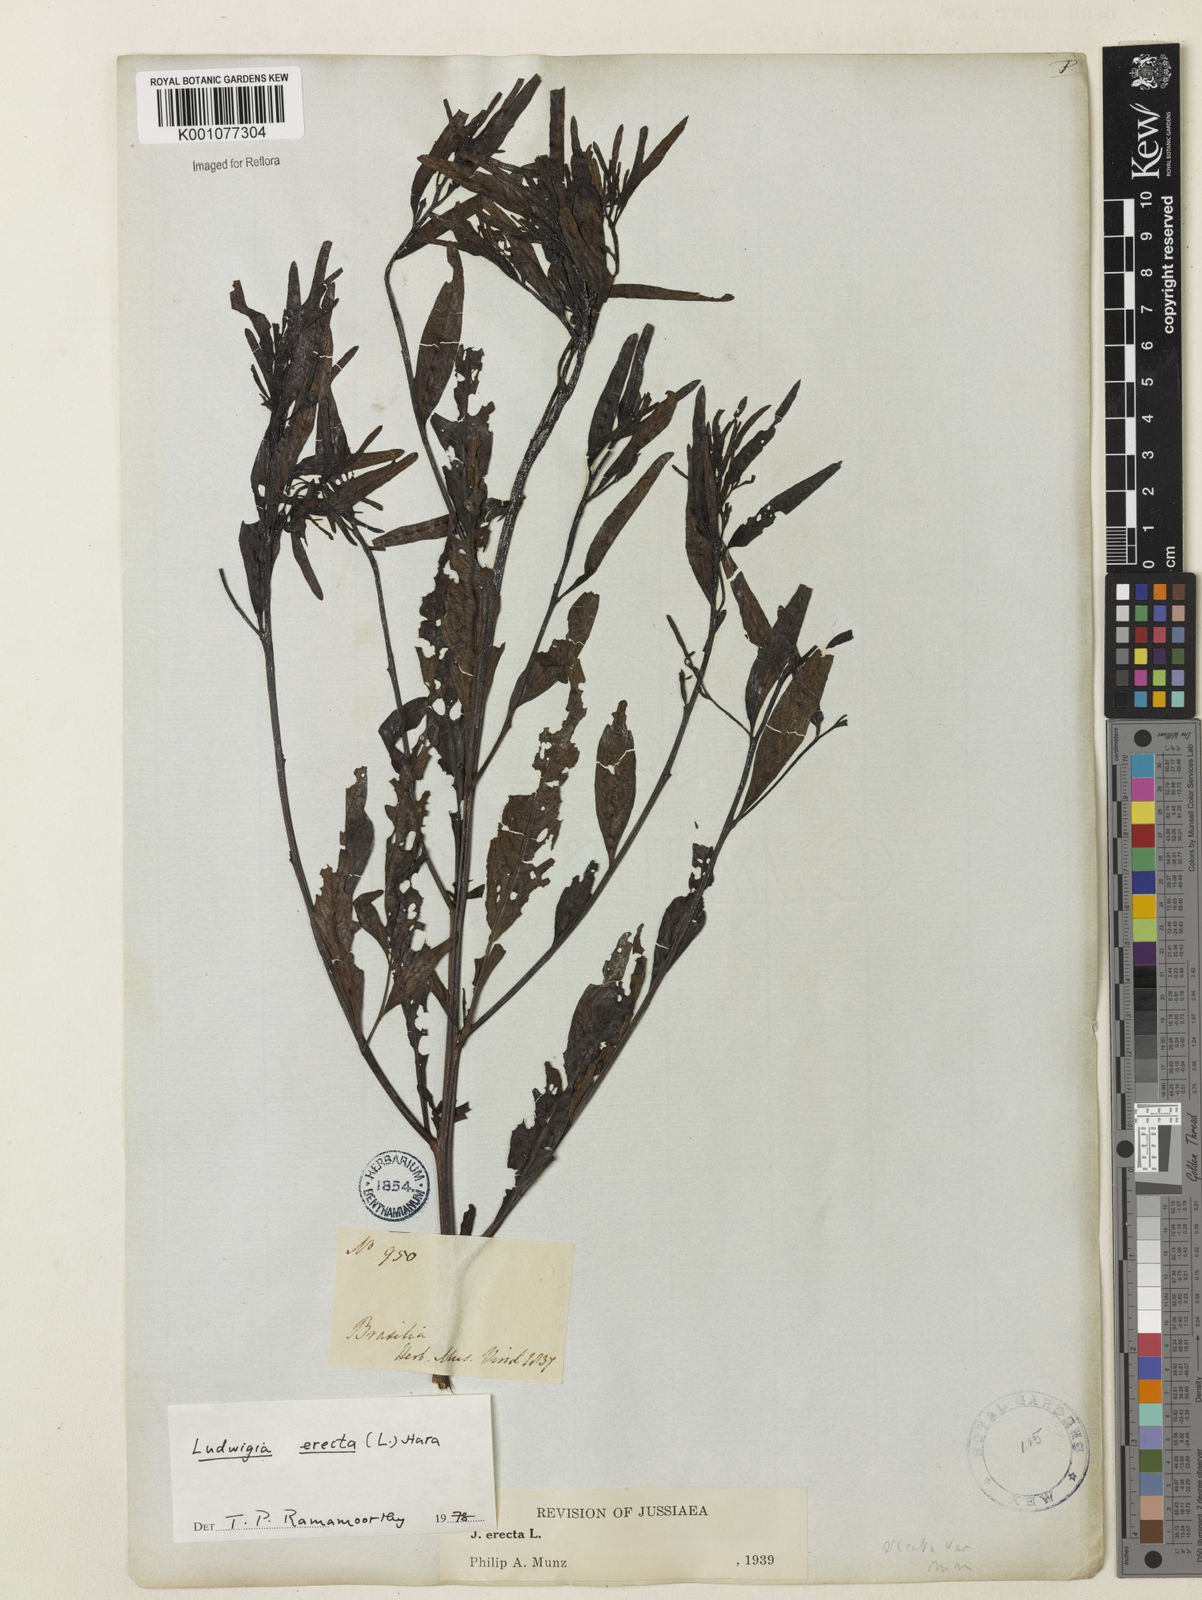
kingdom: Plantae
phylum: Tracheophyta
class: Magnoliopsida
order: Myrtales
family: Onagraceae
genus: Ludwigia
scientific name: Ludwigia erecta
